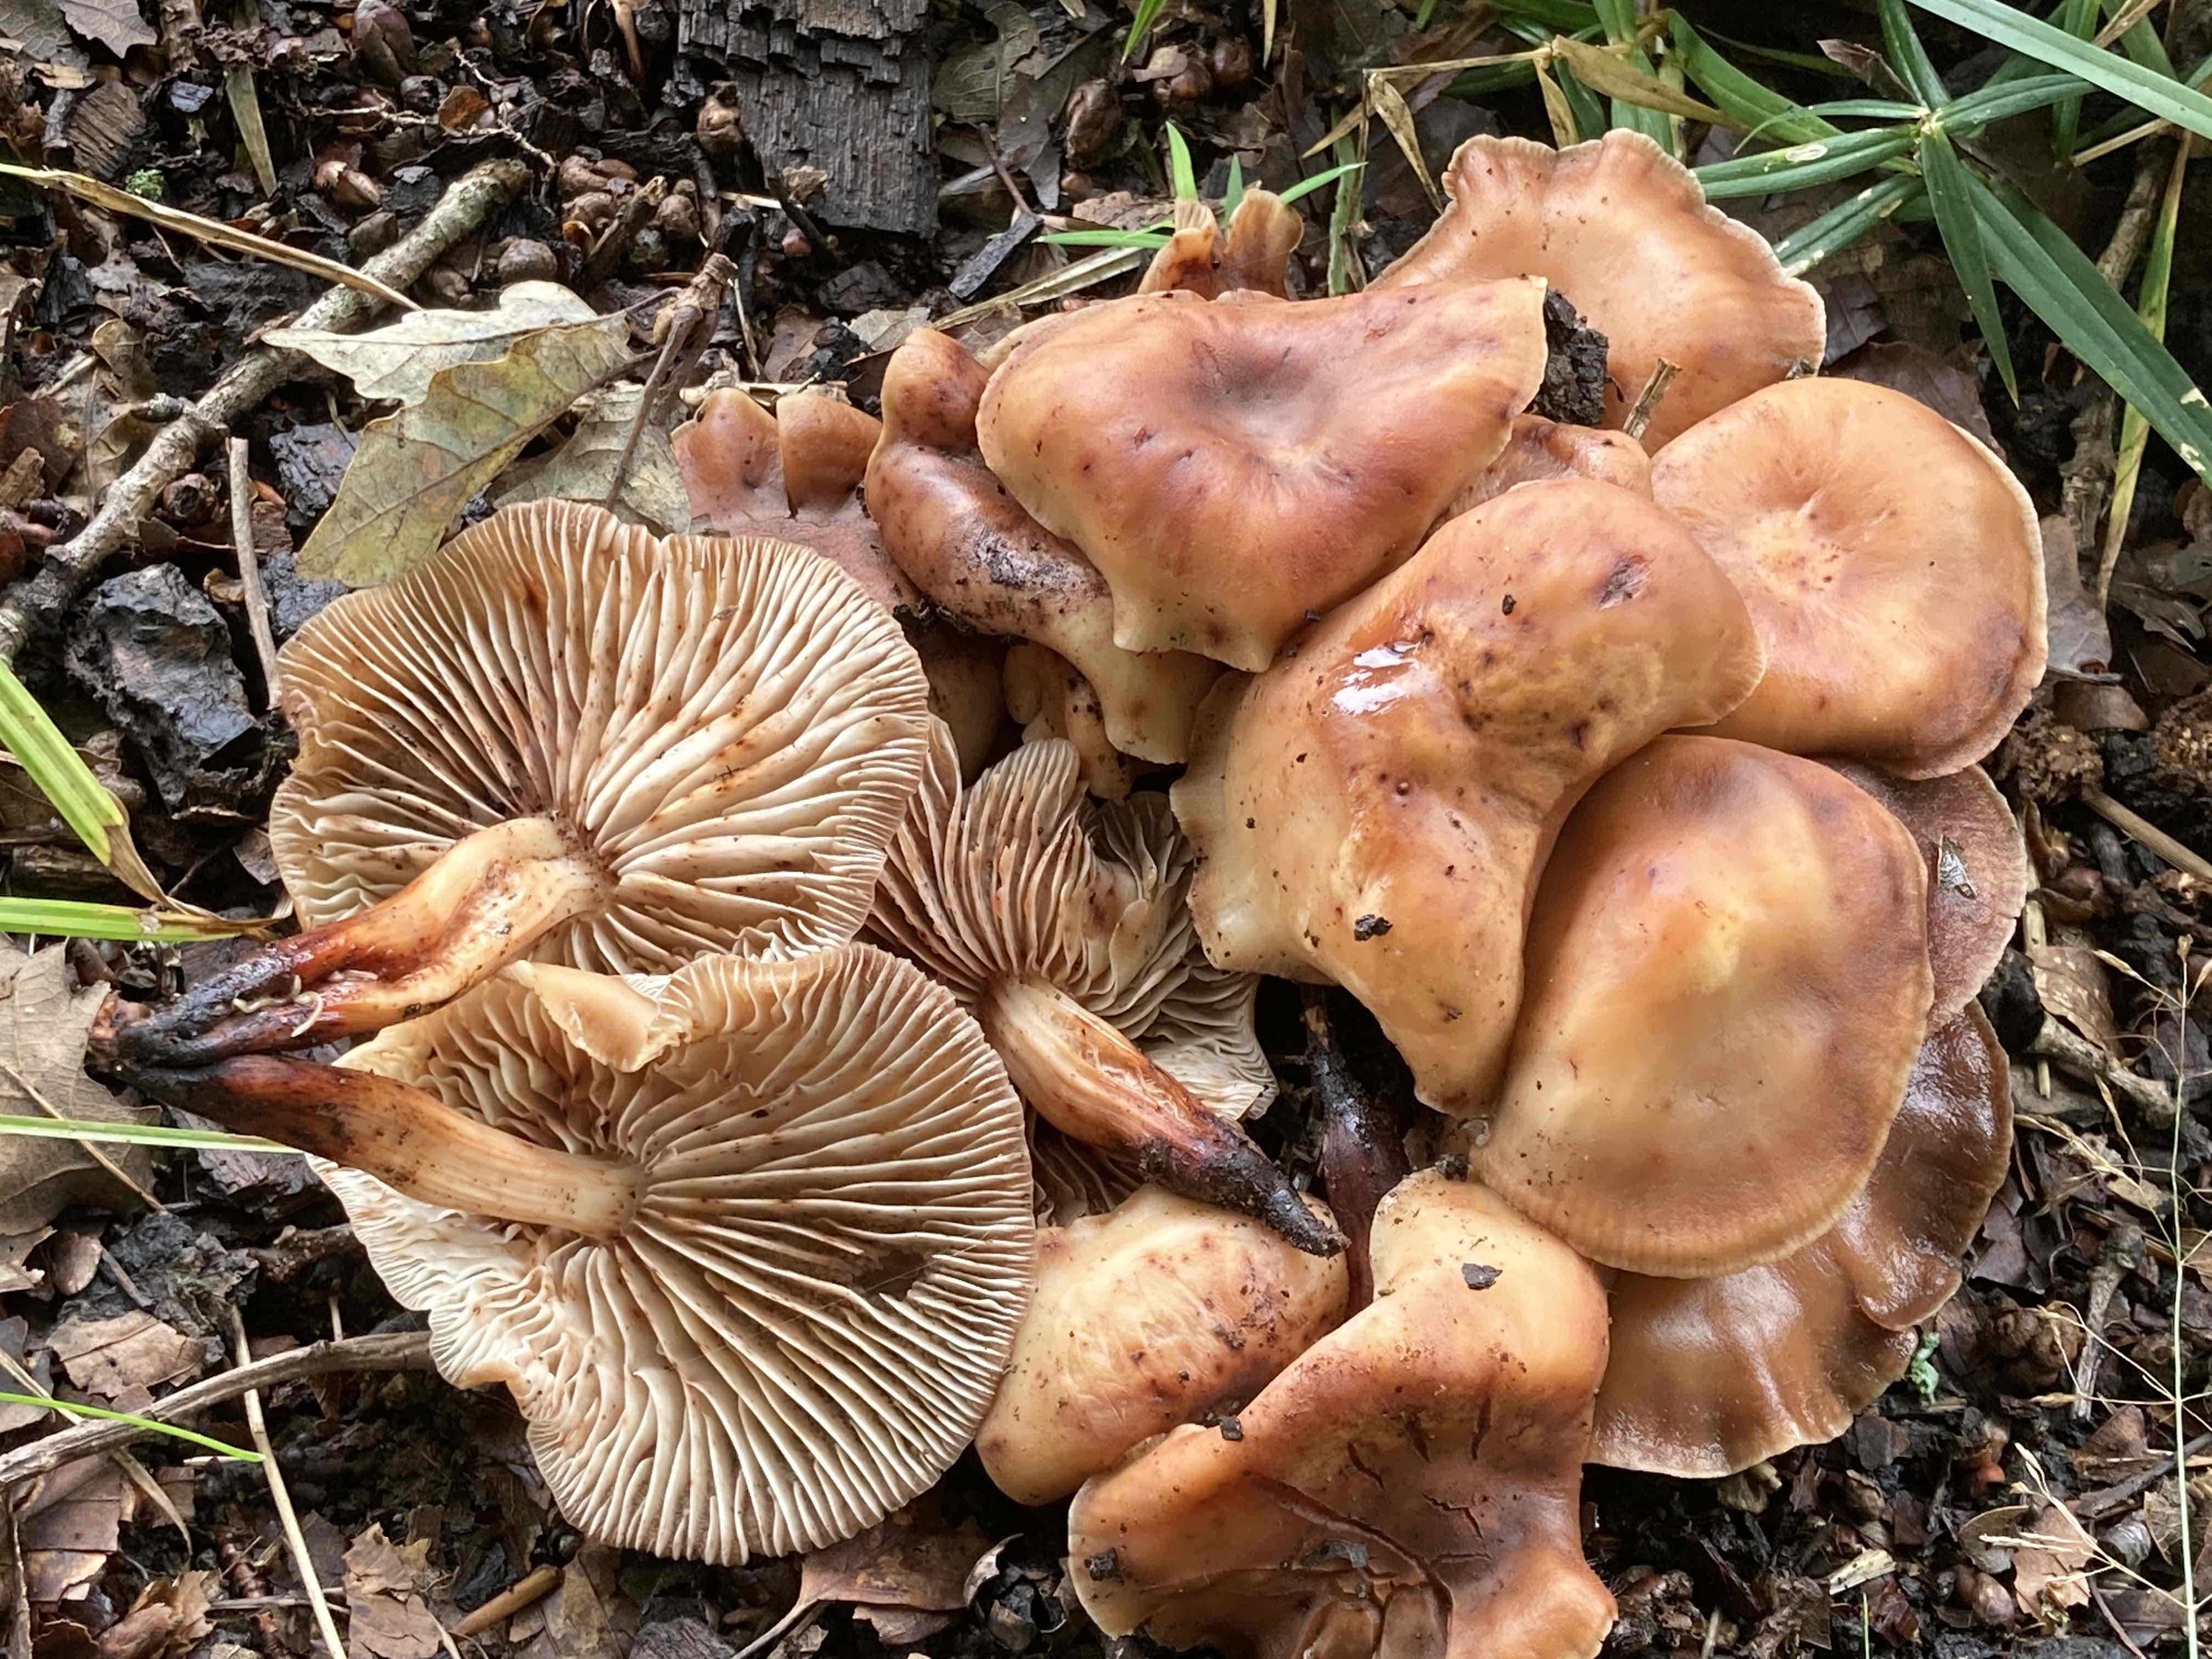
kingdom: Fungi
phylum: Basidiomycota
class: Agaricomycetes
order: Agaricales
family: Omphalotaceae
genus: Gymnopus
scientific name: Gymnopus fusipes
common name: tenstokket fladhat
